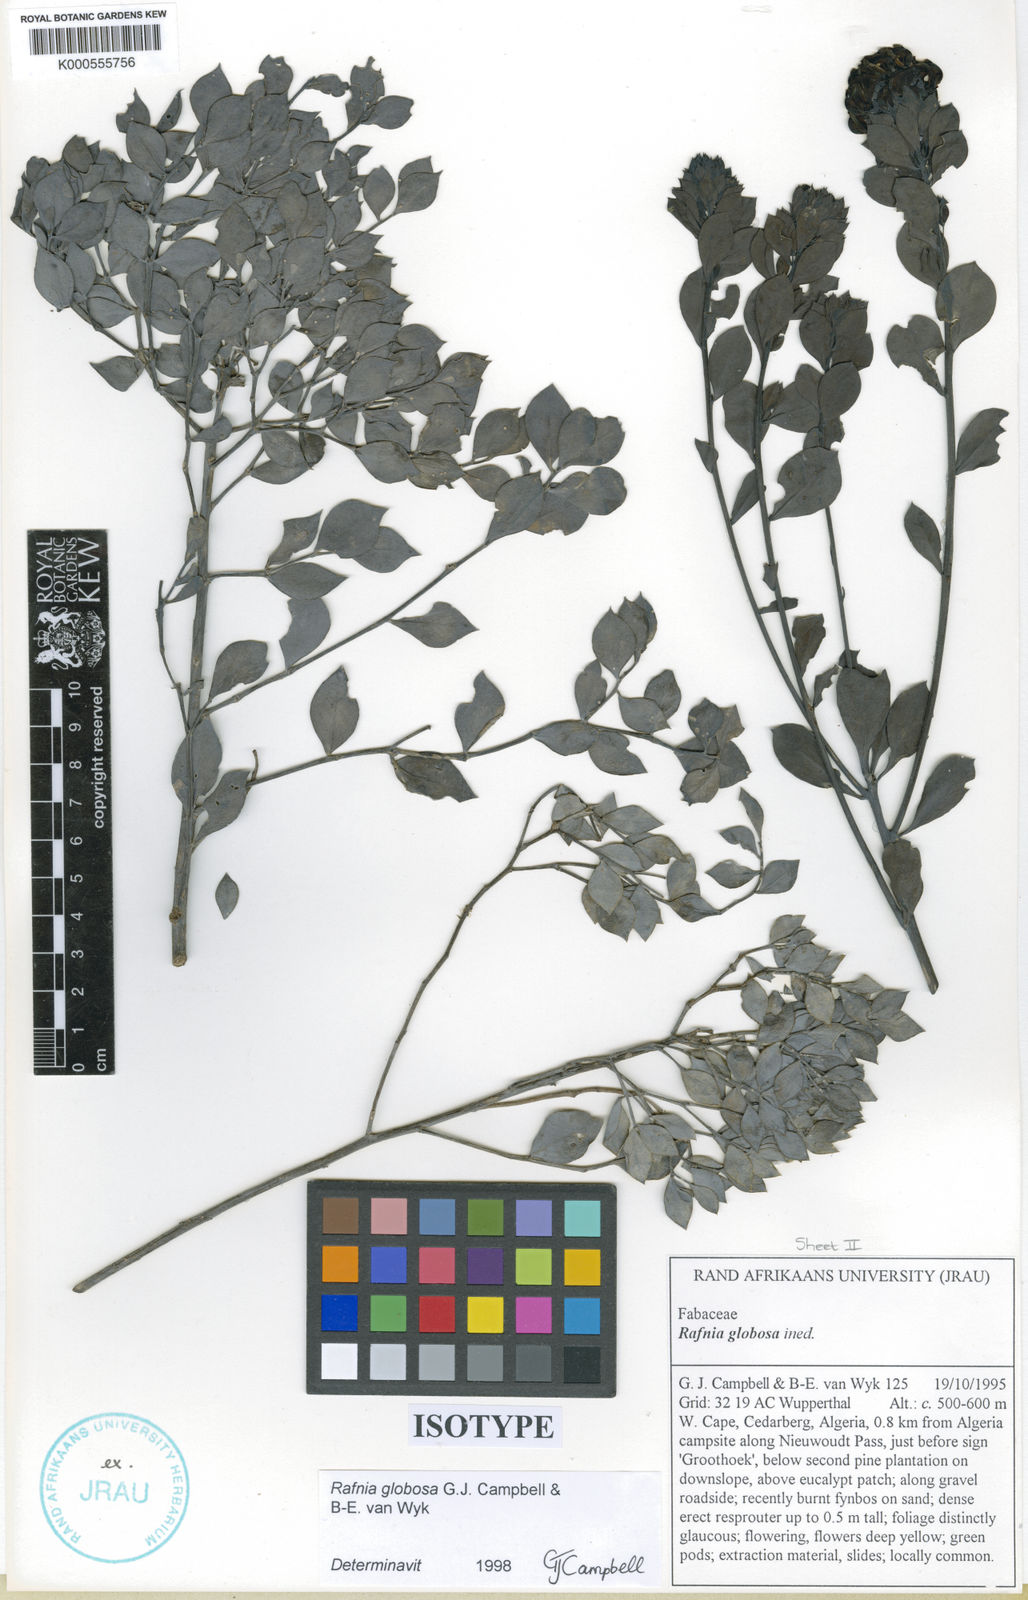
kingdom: Plantae
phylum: Tracheophyta
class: Magnoliopsida
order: Fabales
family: Fabaceae
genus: Rafnia
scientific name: Rafnia globosa
